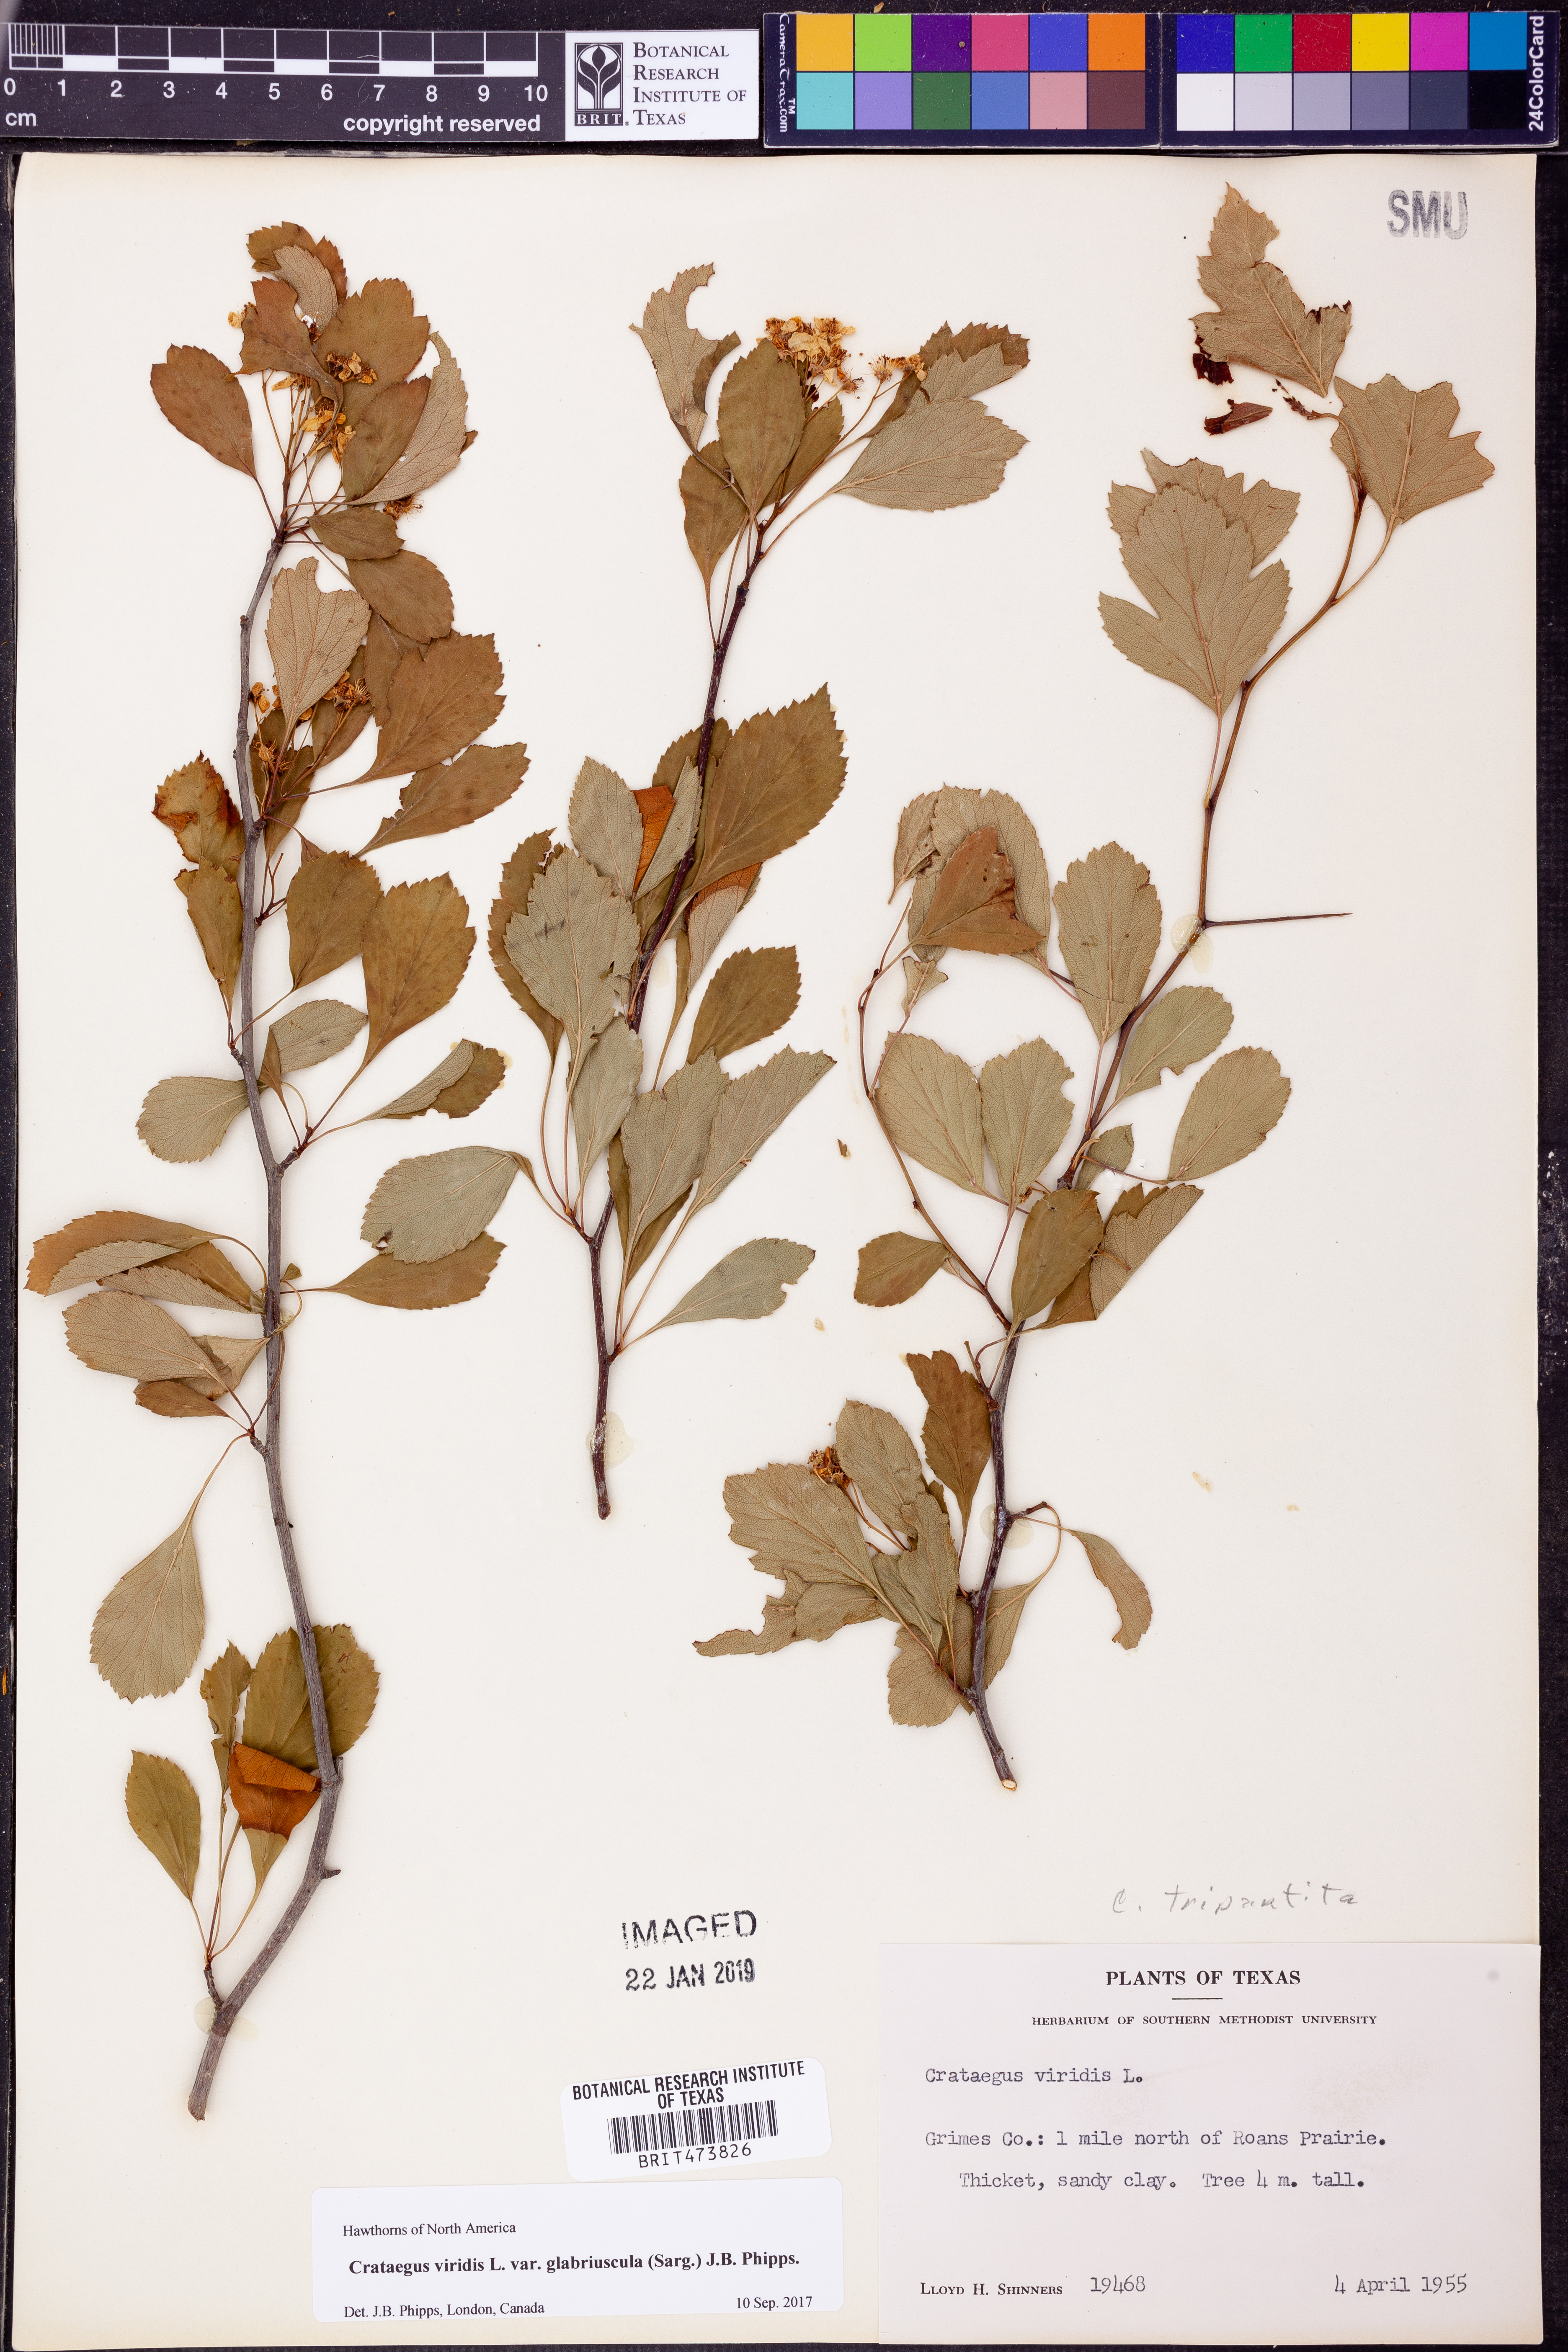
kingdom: Plantae
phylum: Tracheophyta
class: Magnoliopsida
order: Rosales
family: Rosaceae
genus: Crataegus
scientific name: Crataegus viridis
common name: Southernthorn
